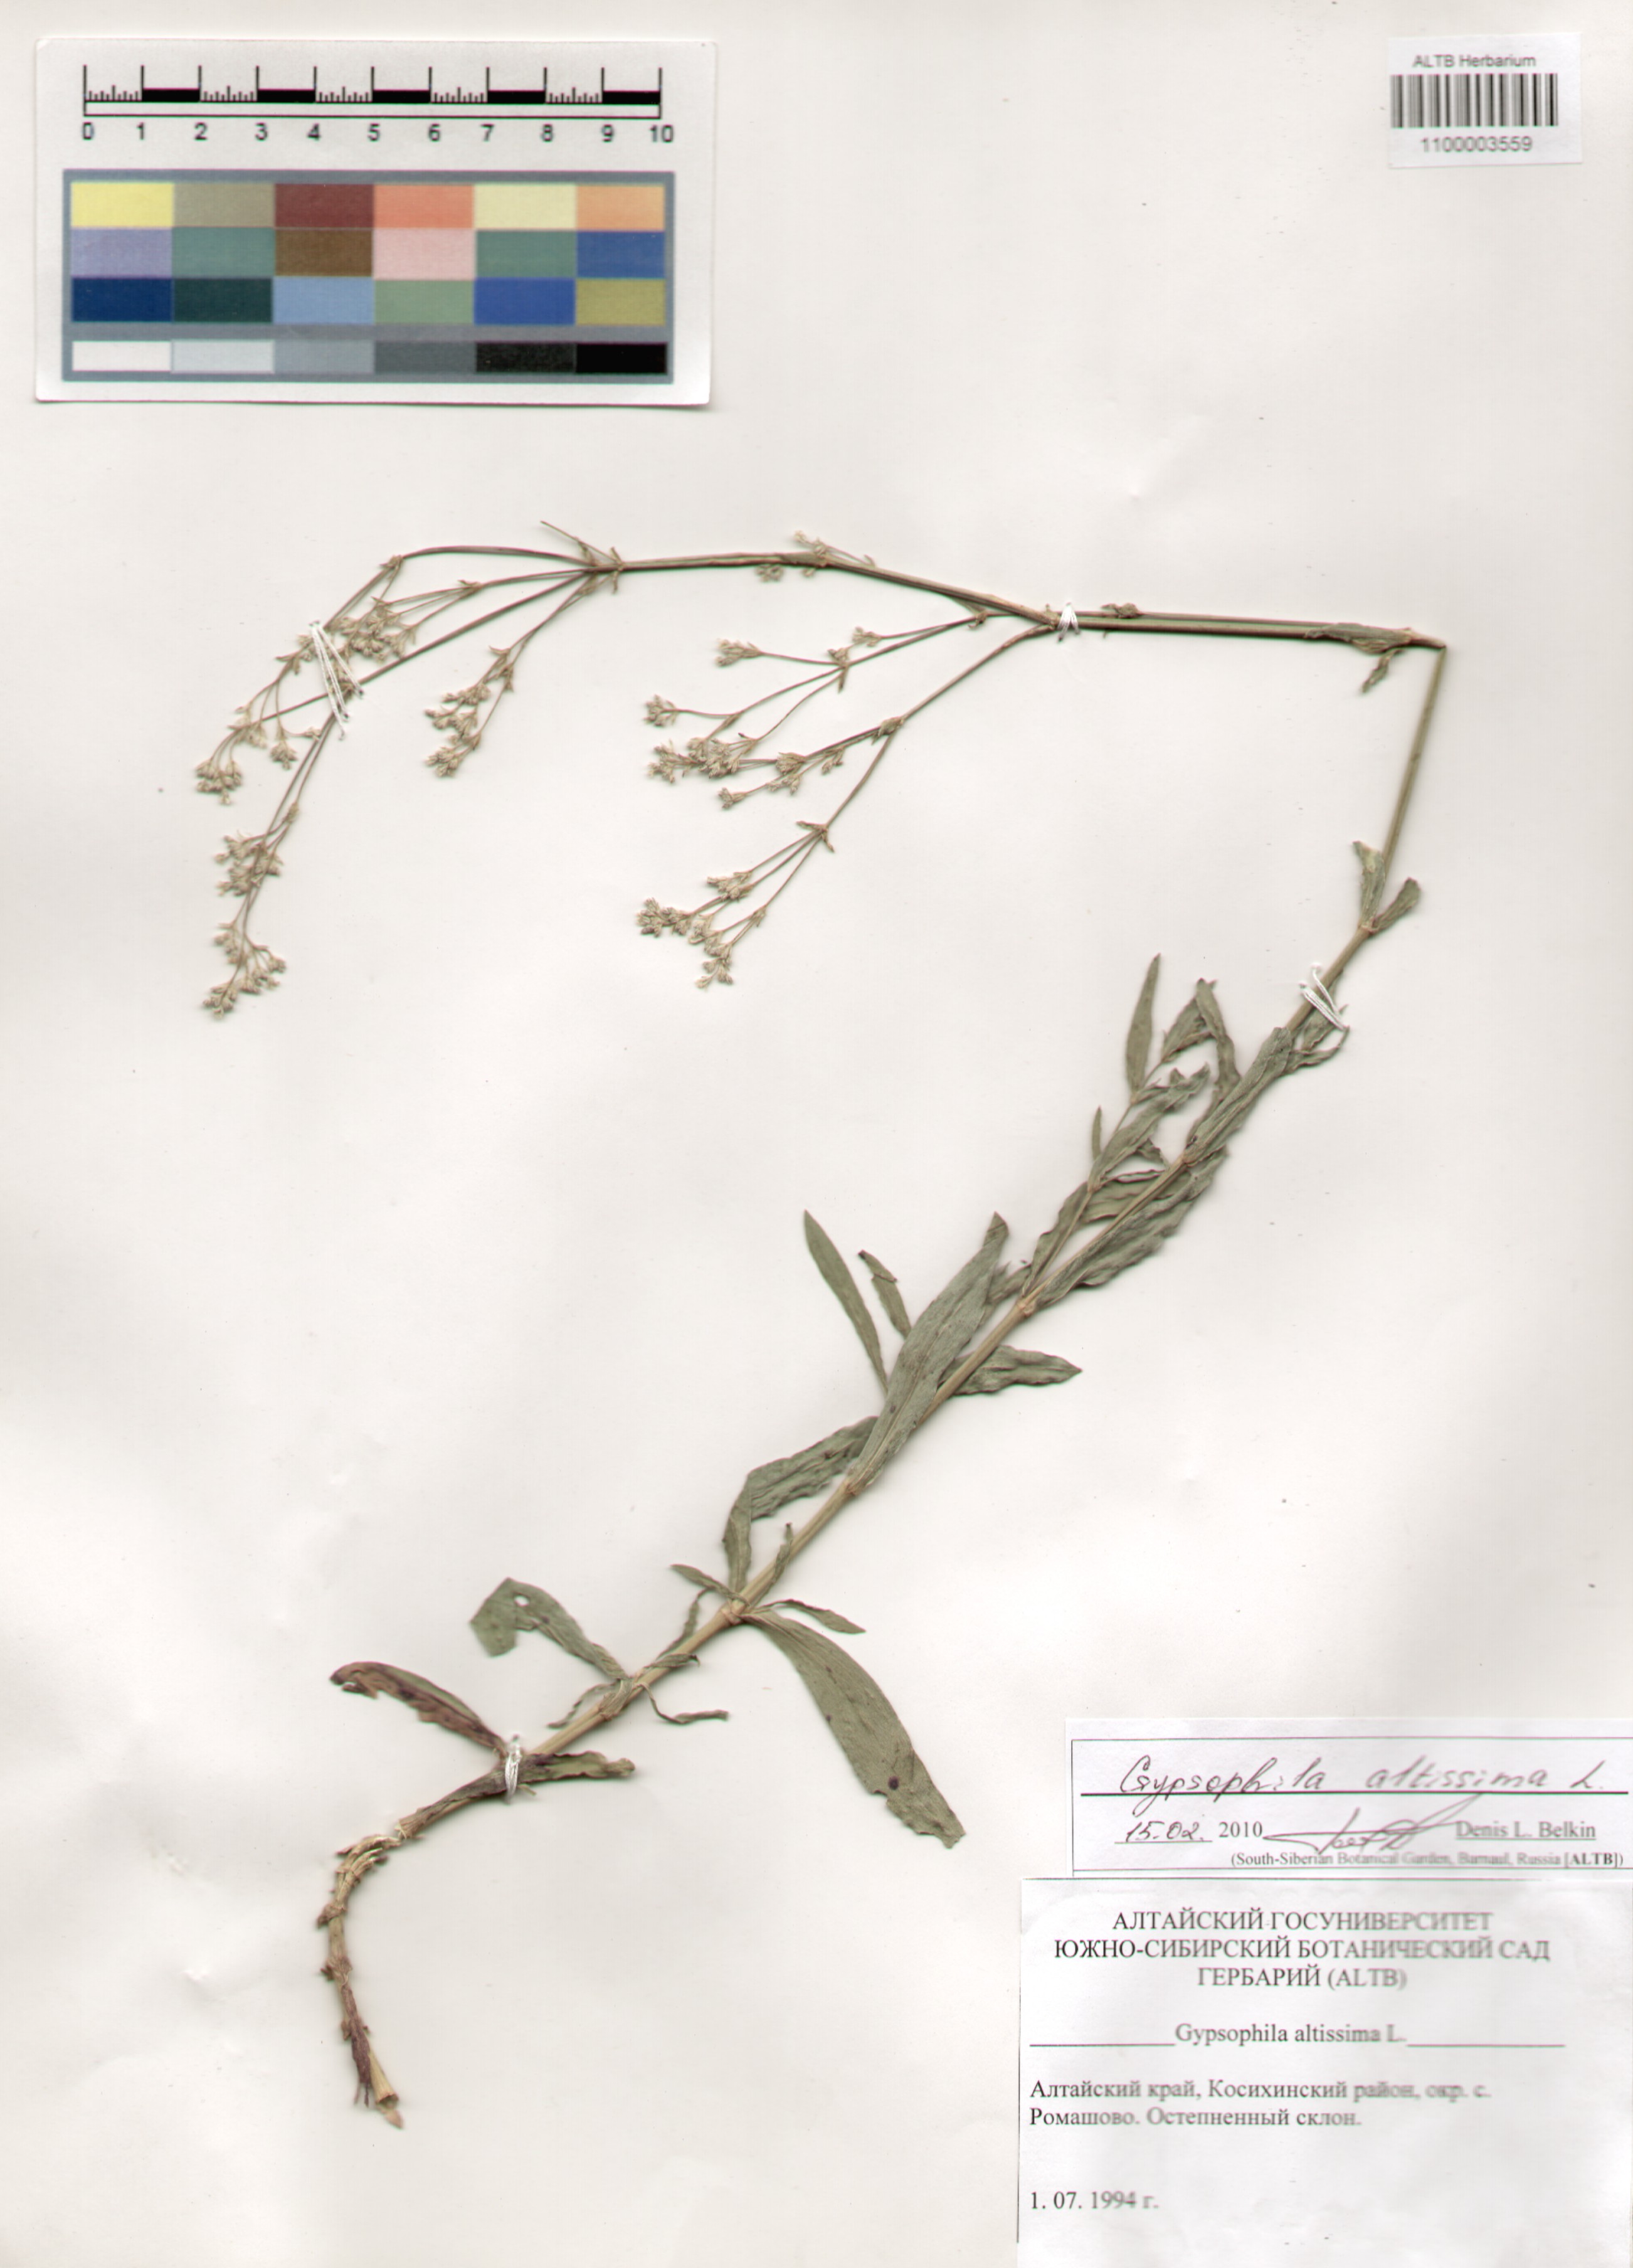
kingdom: Plantae
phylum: Tracheophyta
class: Magnoliopsida
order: Caryophyllales
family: Caryophyllaceae
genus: Gypsophila
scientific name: Gypsophila altissima
